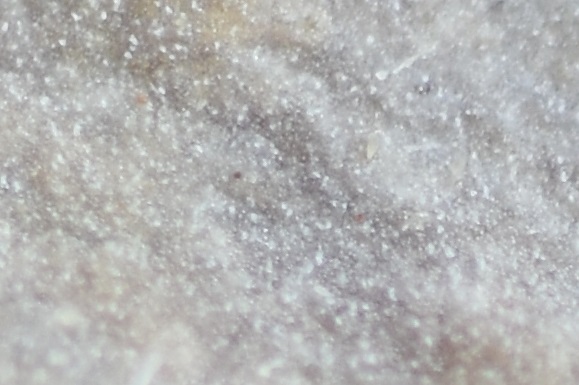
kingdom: Fungi
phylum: Basidiomycota
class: Agaricomycetes
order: Hymenochaetales
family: Rickenellaceae
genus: Peniophorella
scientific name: Peniophorella pubera
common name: dunet kalkskind
